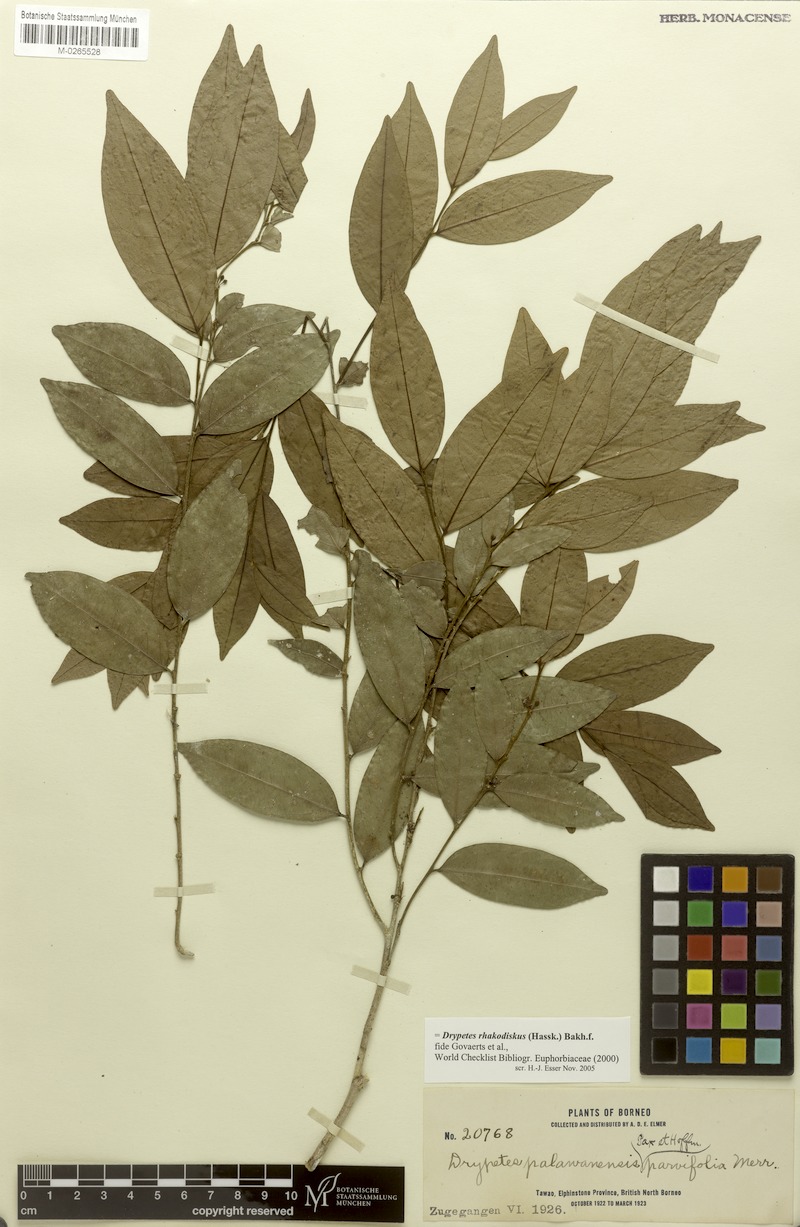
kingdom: Plantae
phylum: Tracheophyta
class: Magnoliopsida
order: Malpighiales
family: Putranjivaceae
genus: Drypetes
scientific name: Drypetes rhakodiskos
